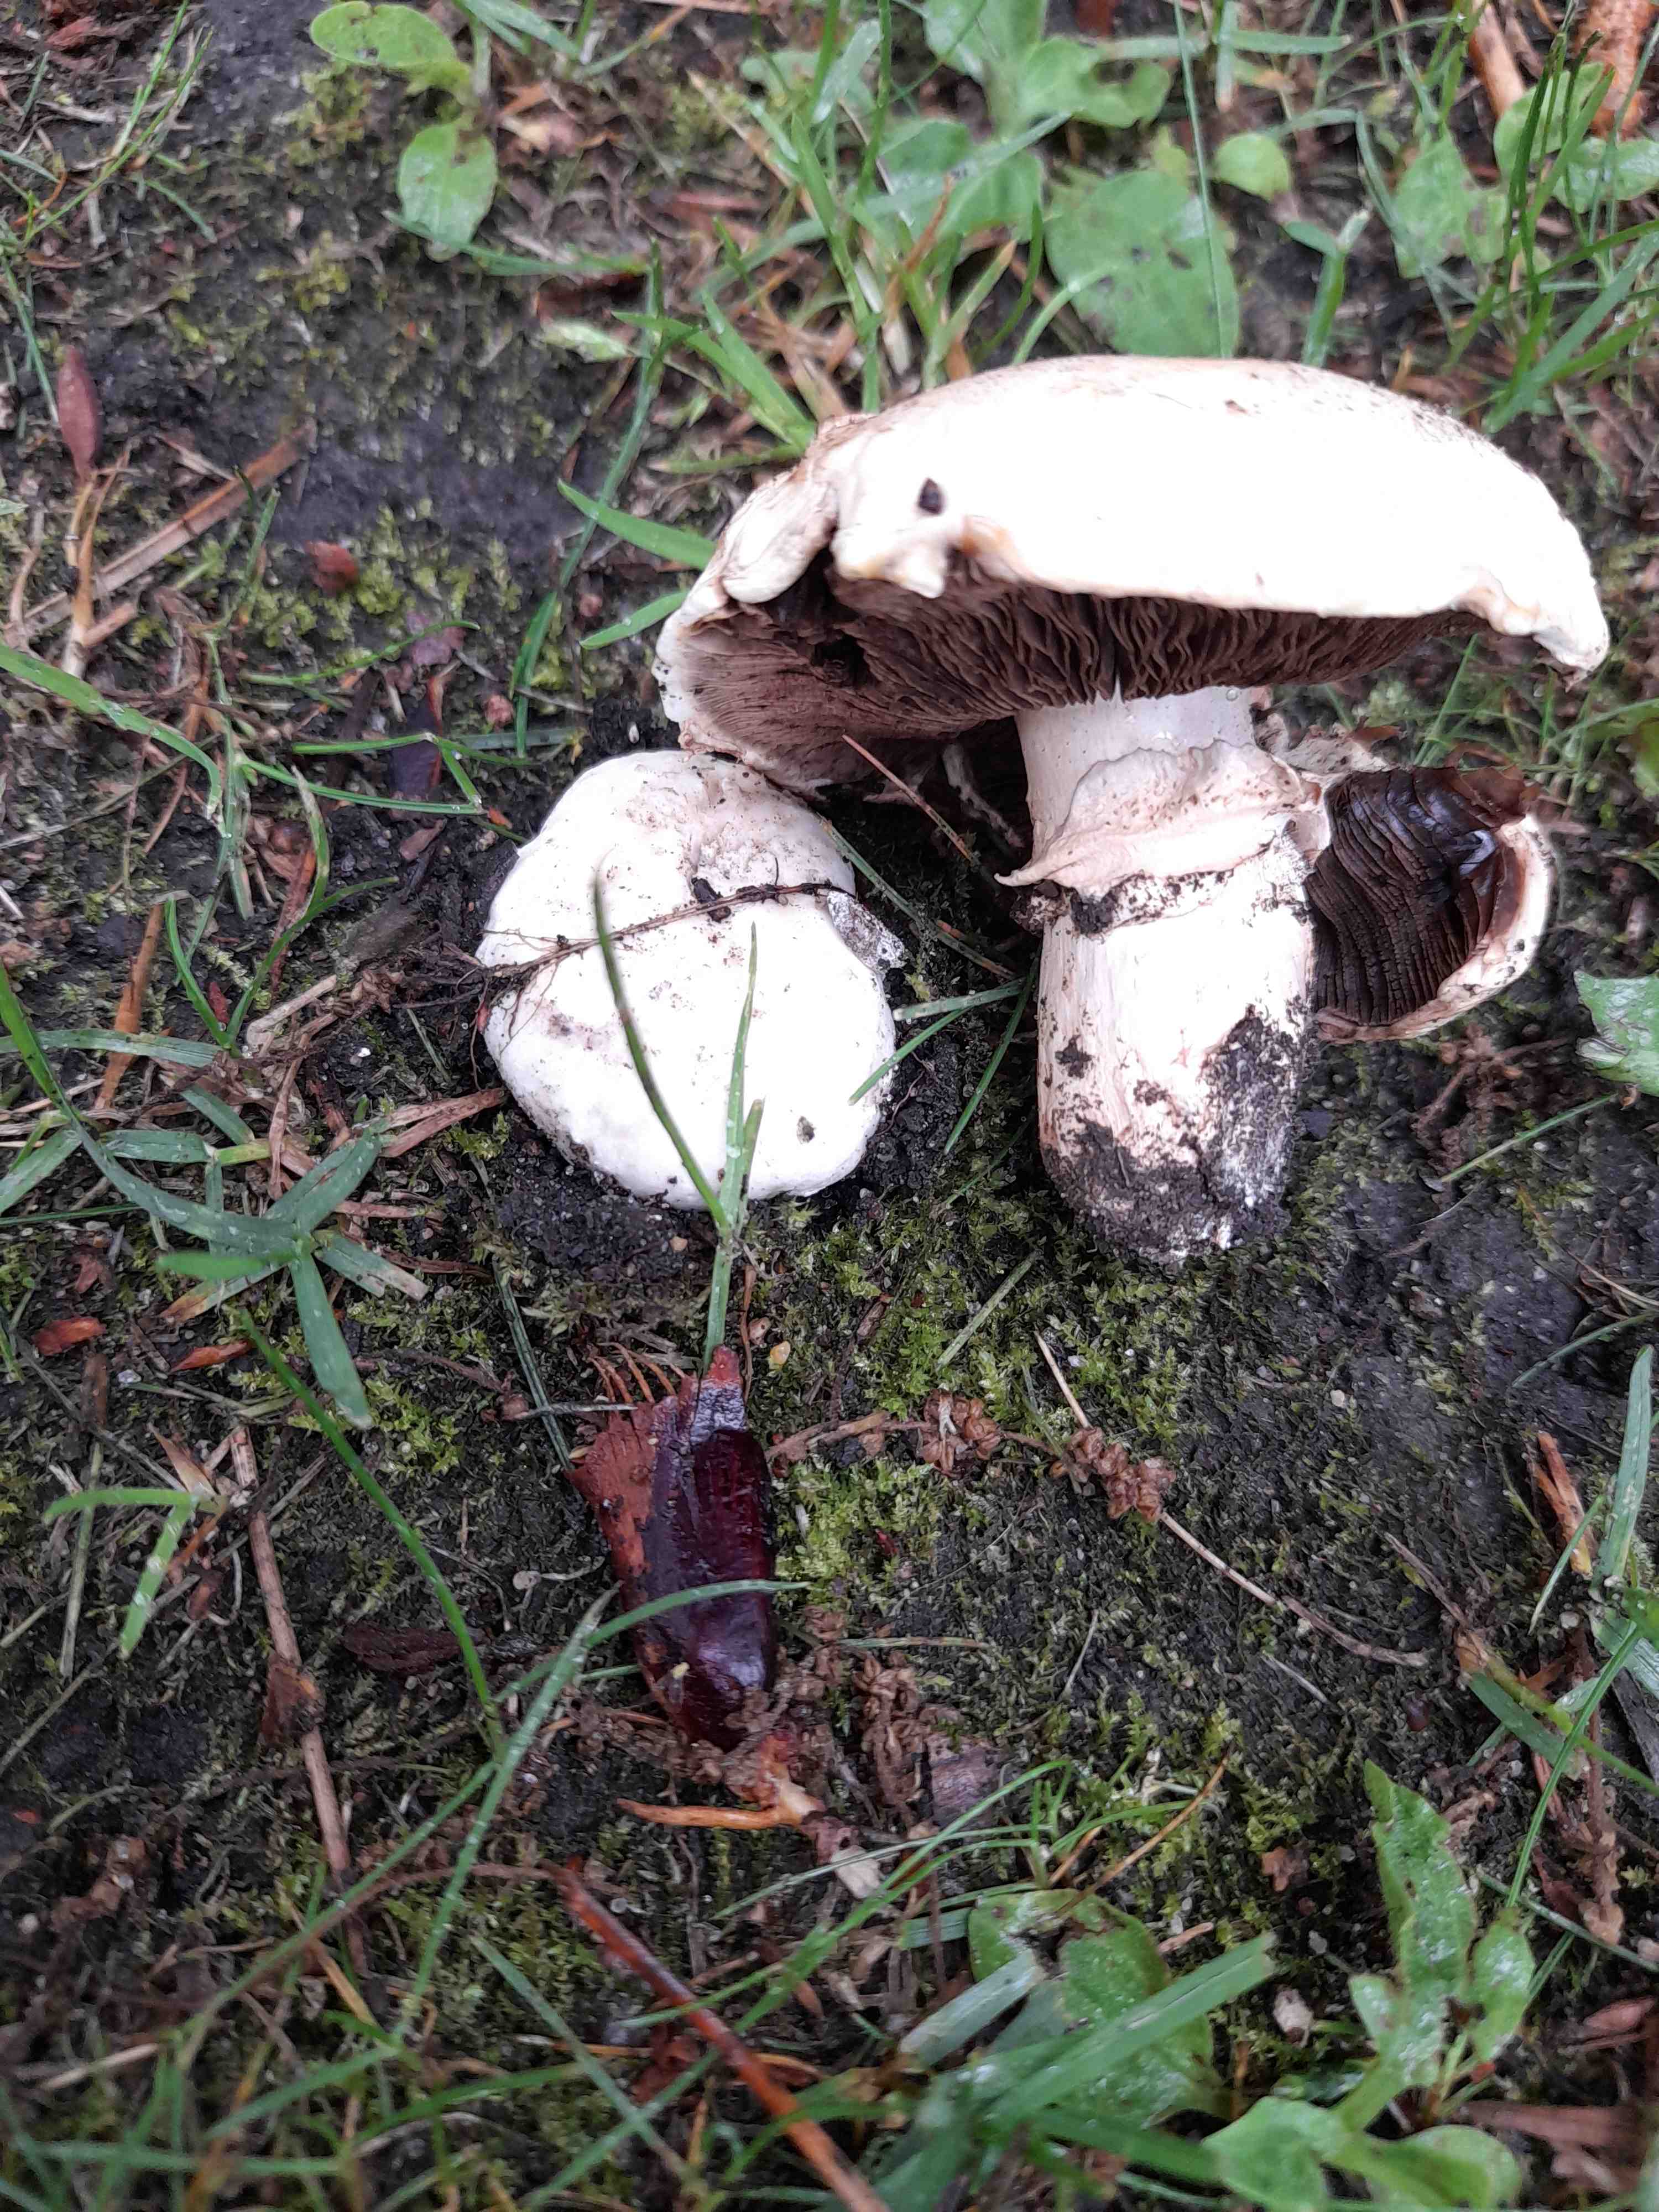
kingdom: Fungi
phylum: Basidiomycota
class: Agaricomycetes
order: Agaricales
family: Agaricaceae
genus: Agaricus
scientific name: Agaricus bitorquis
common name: vej-champignon
